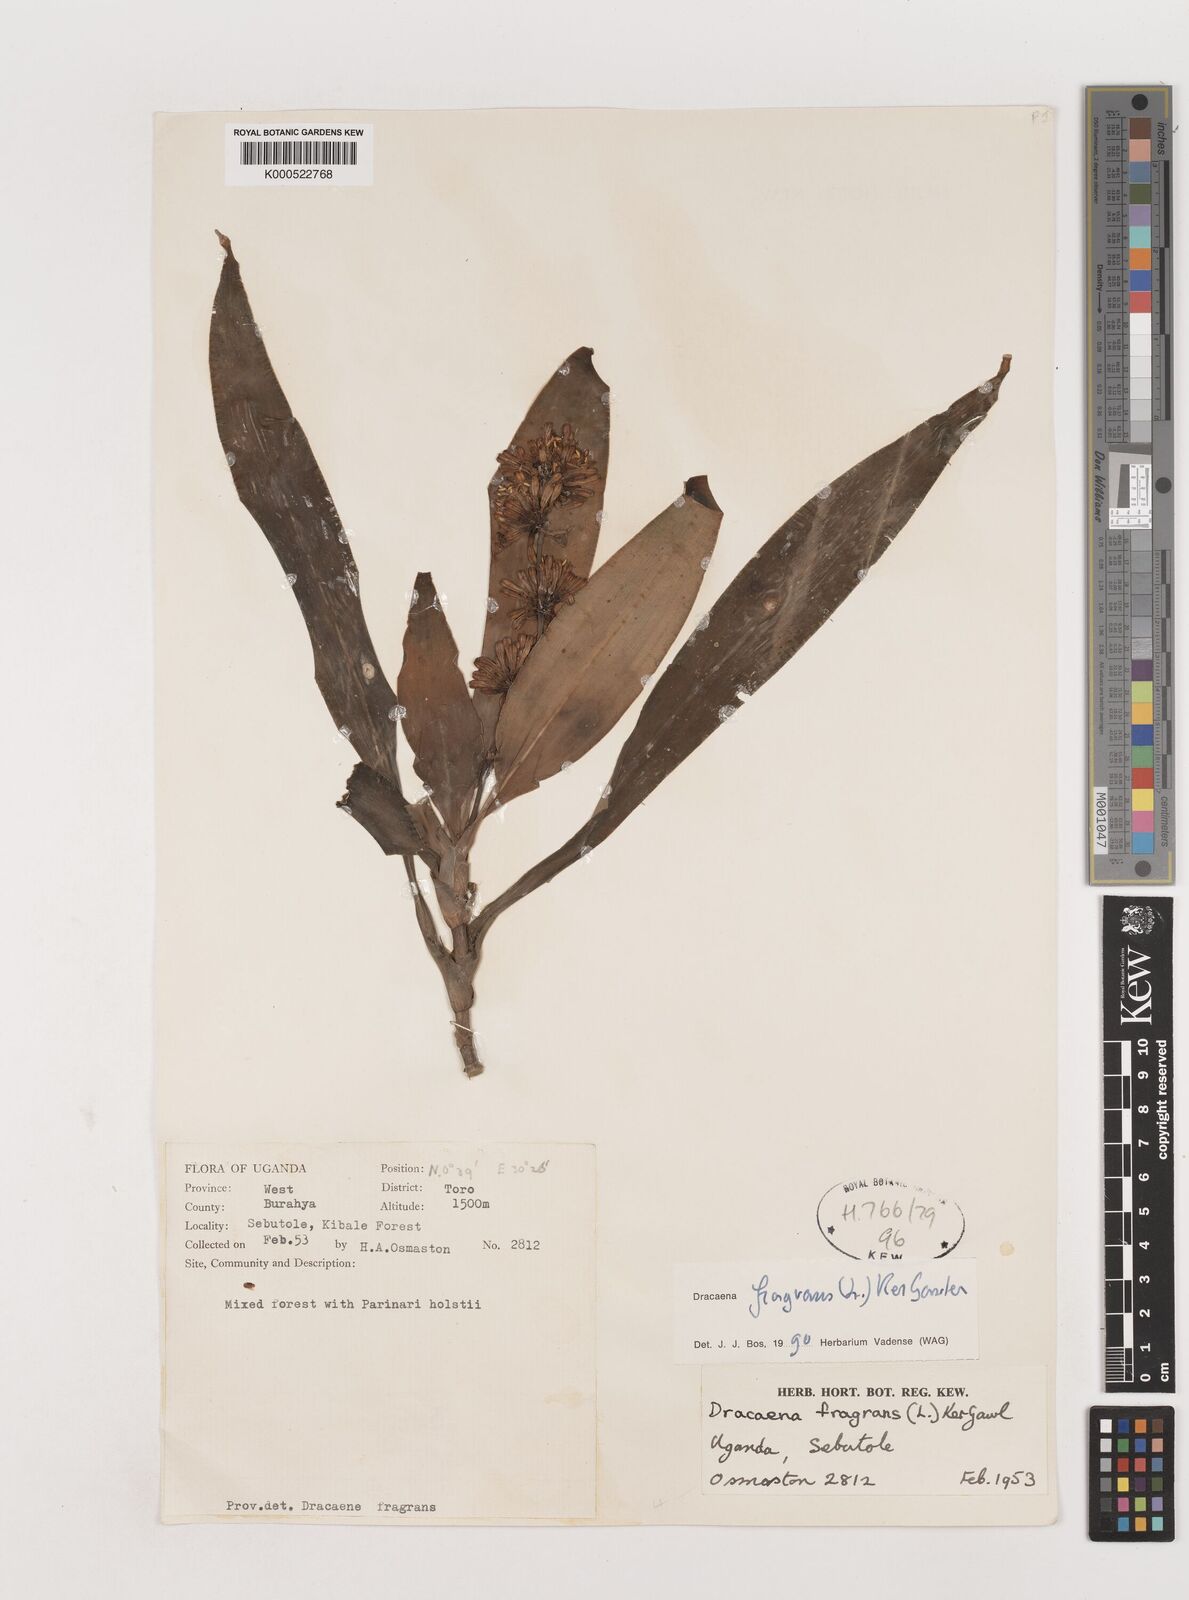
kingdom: Plantae
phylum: Tracheophyta
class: Liliopsida
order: Asparagales
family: Asparagaceae
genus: Dracaena
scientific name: Dracaena fragrans
